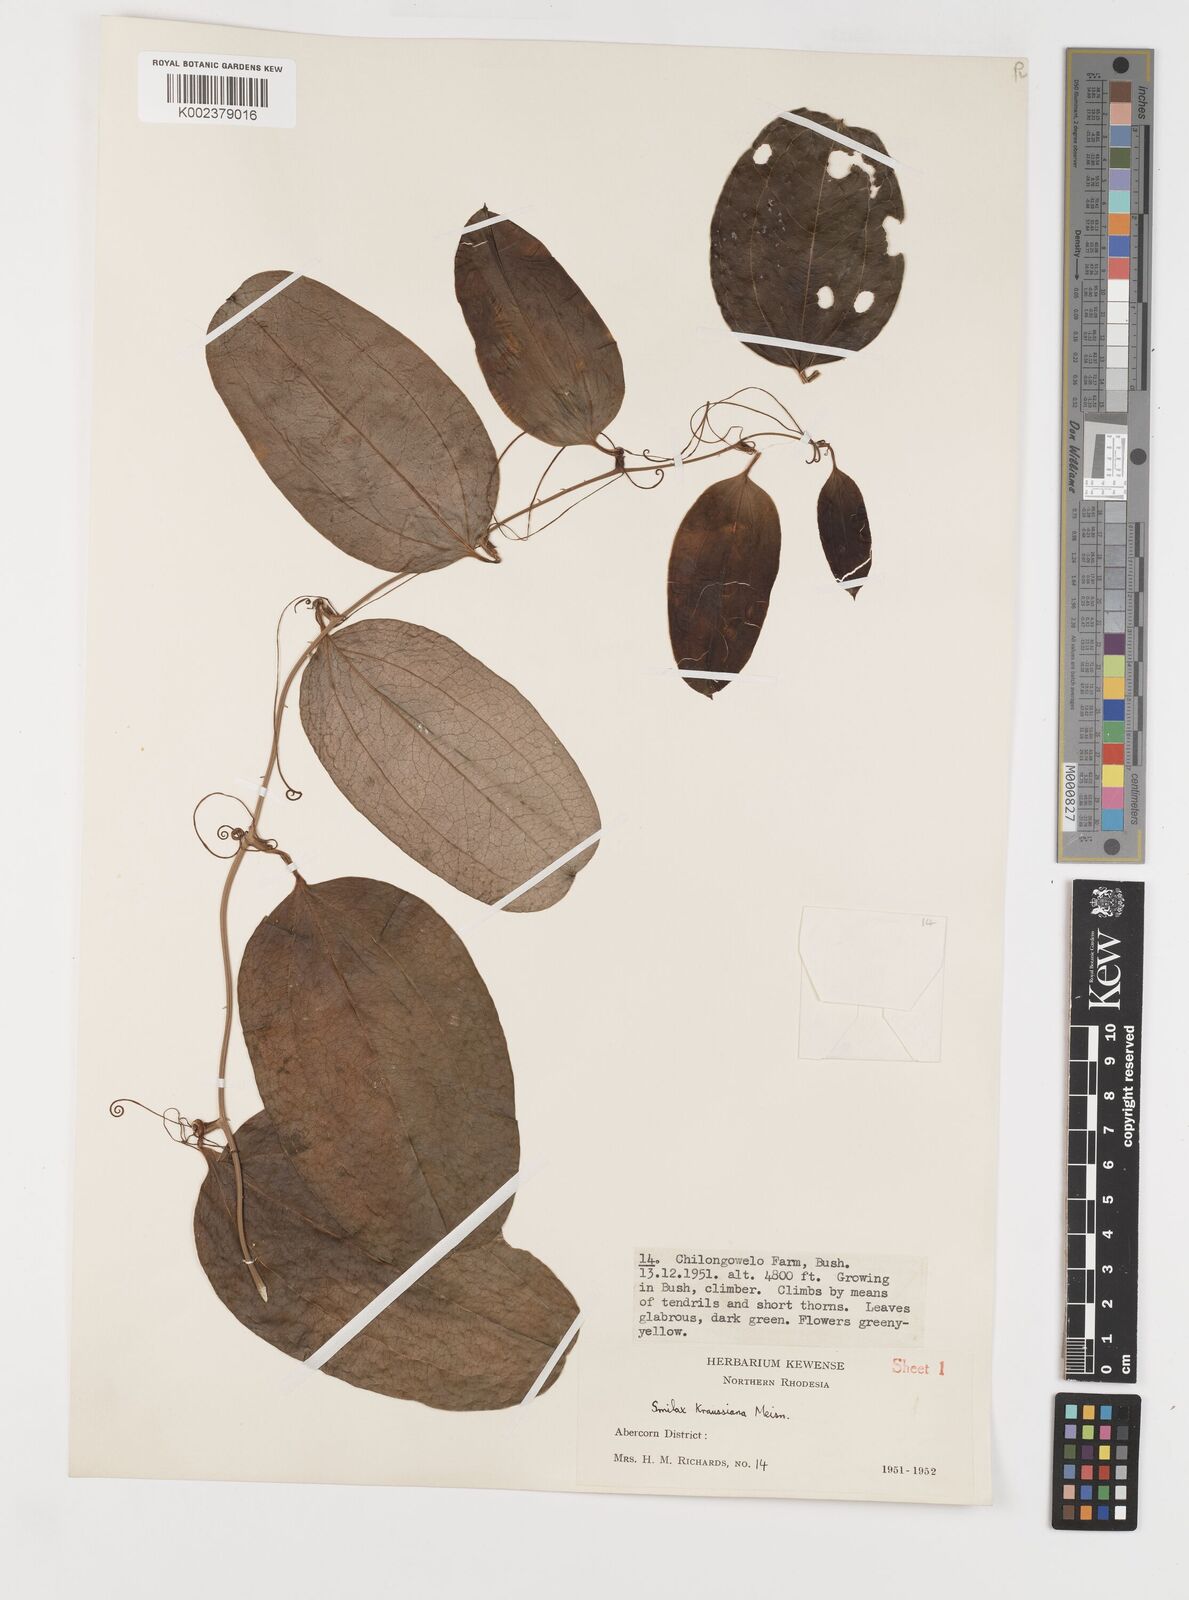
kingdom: Plantae
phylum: Tracheophyta
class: Liliopsida
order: Liliales
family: Smilacaceae
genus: Smilax
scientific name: Smilax anceps
